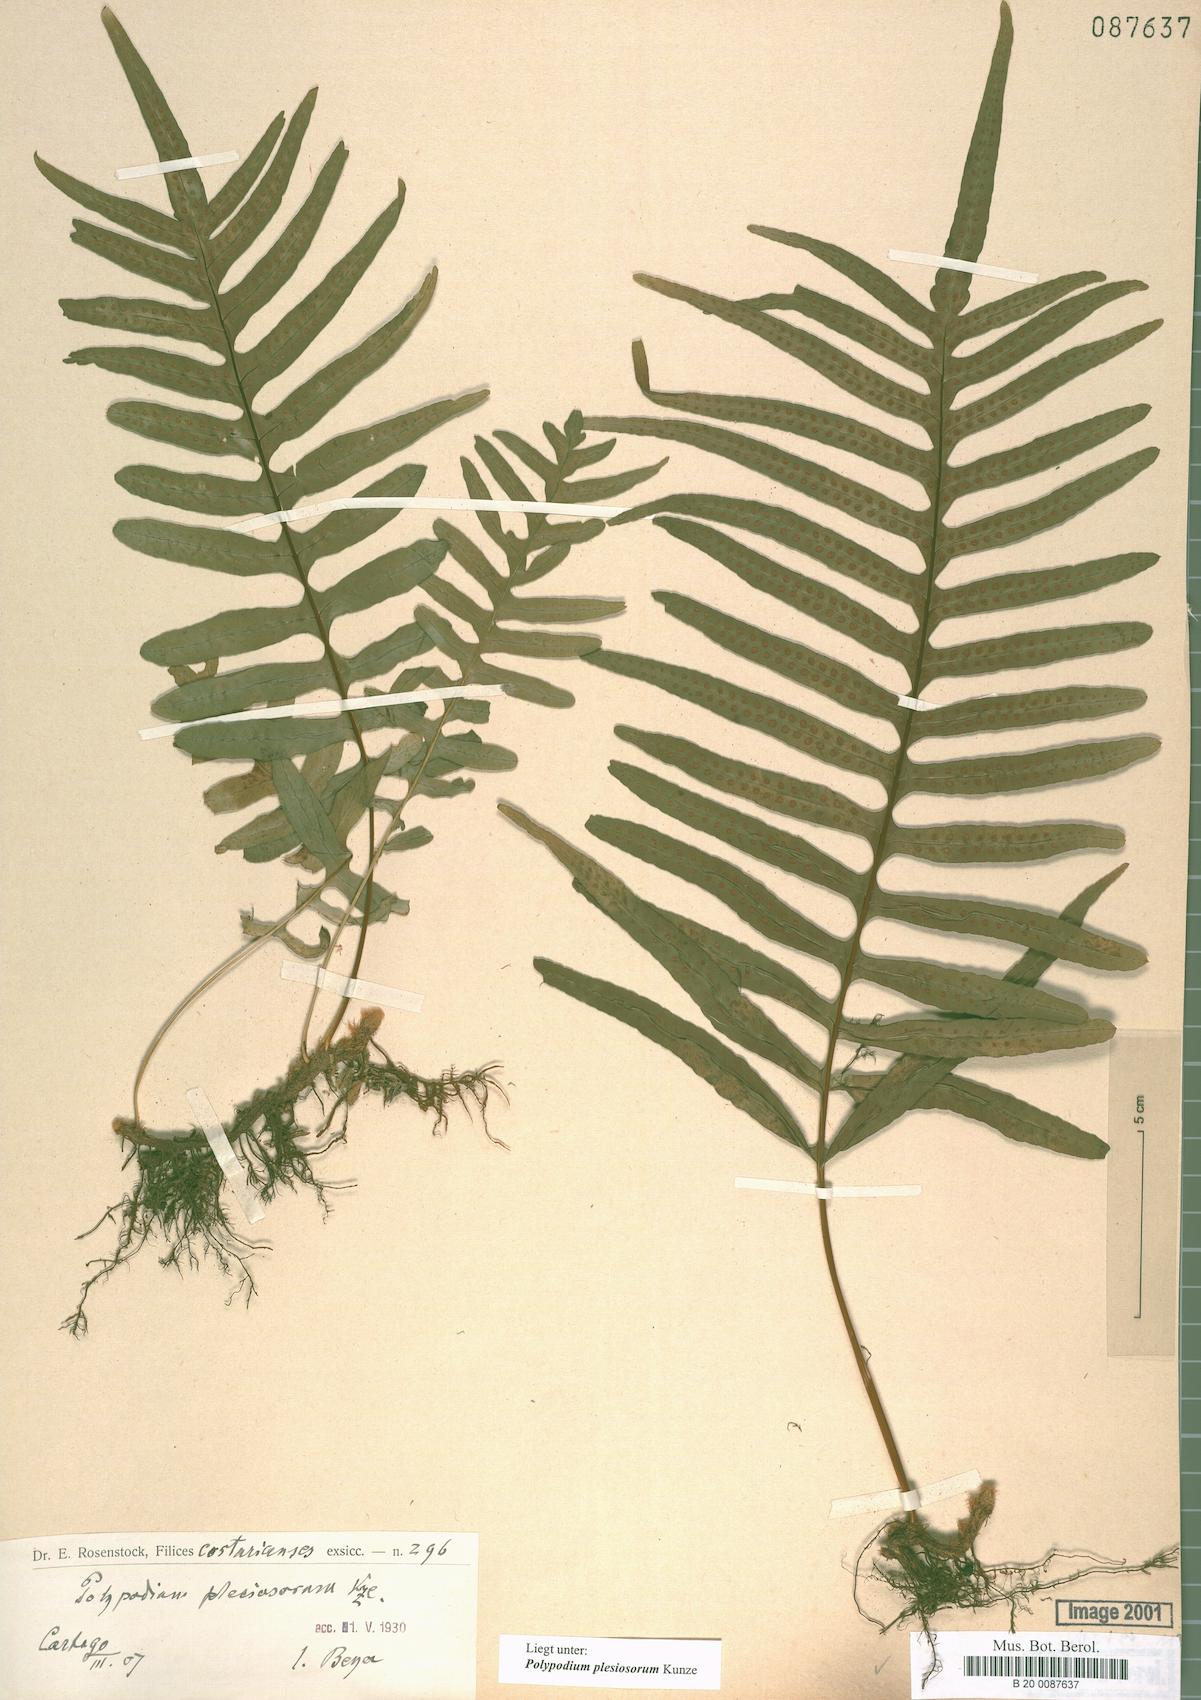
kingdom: Plantae
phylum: Tracheophyta
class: Polypodiopsida
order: Polypodiales
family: Polypodiaceae
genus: Polypodium
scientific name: Polypodium plesiosorum
